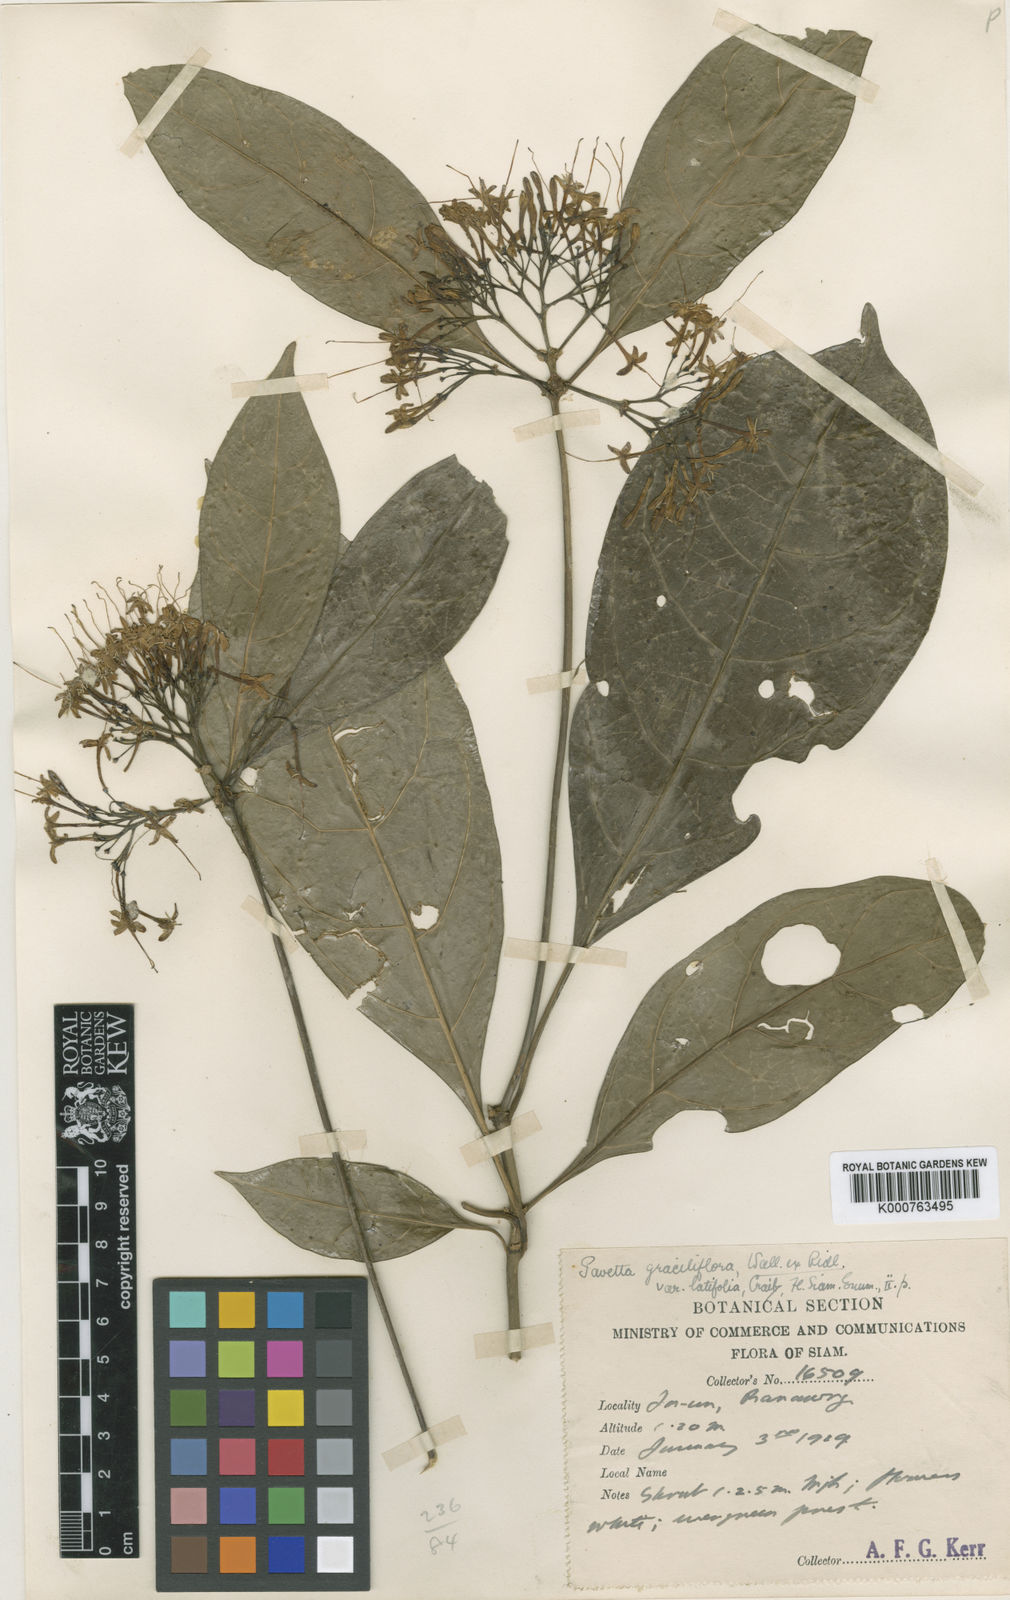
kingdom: Plantae
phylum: Tracheophyta
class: Magnoliopsida
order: Gentianales
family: Rubiaceae
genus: Pavetta
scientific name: Pavetta graciliflora
